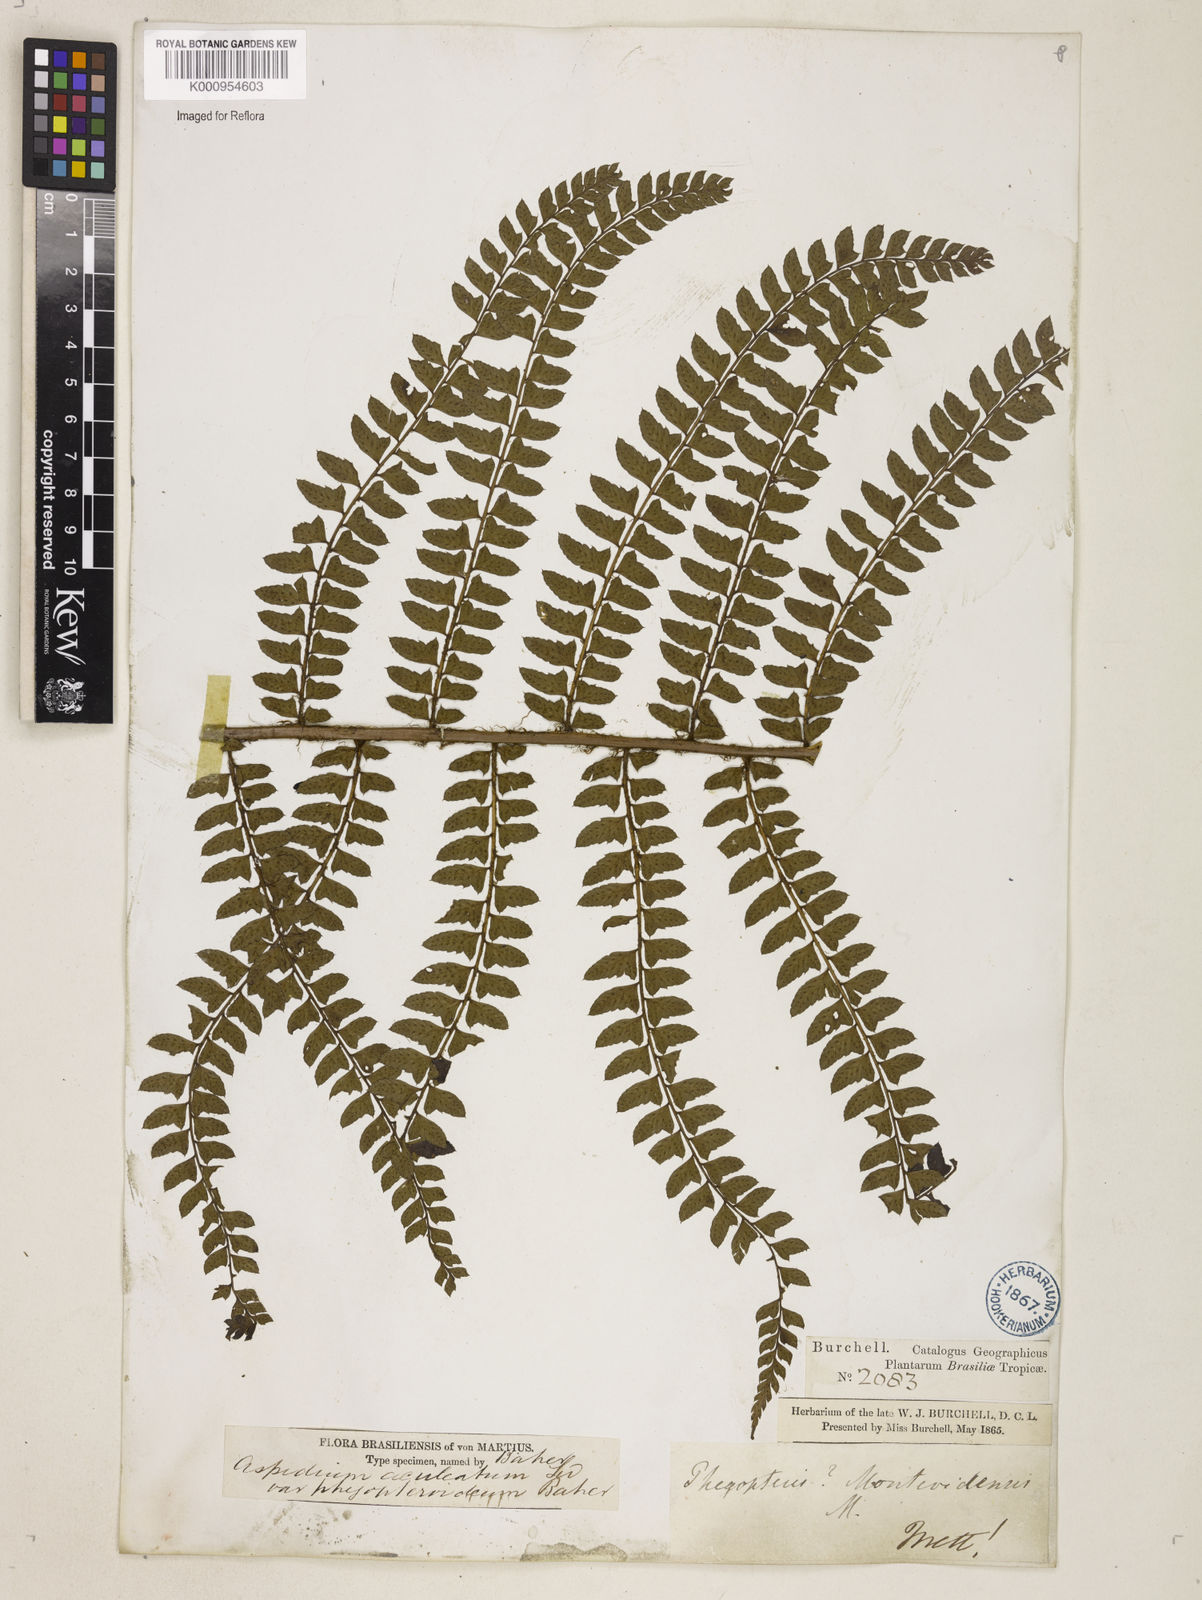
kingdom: Plantae
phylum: Tracheophyta
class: Polypodiopsida
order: Polypodiales
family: Dryopteridaceae
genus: Polystichum
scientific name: Polystichum montevidense
